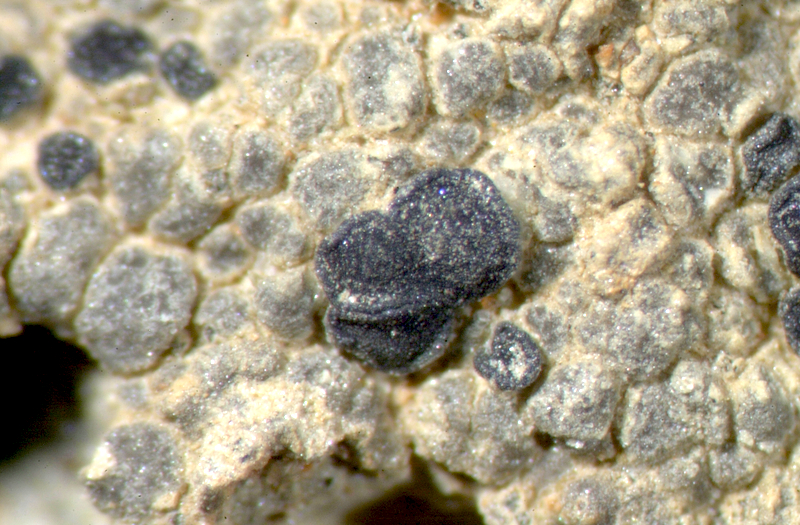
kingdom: Fungi
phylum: Ascomycota
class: Lecanoromycetes
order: Lecanorales
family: Ramalinaceae
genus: Toninia
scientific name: Toninia
